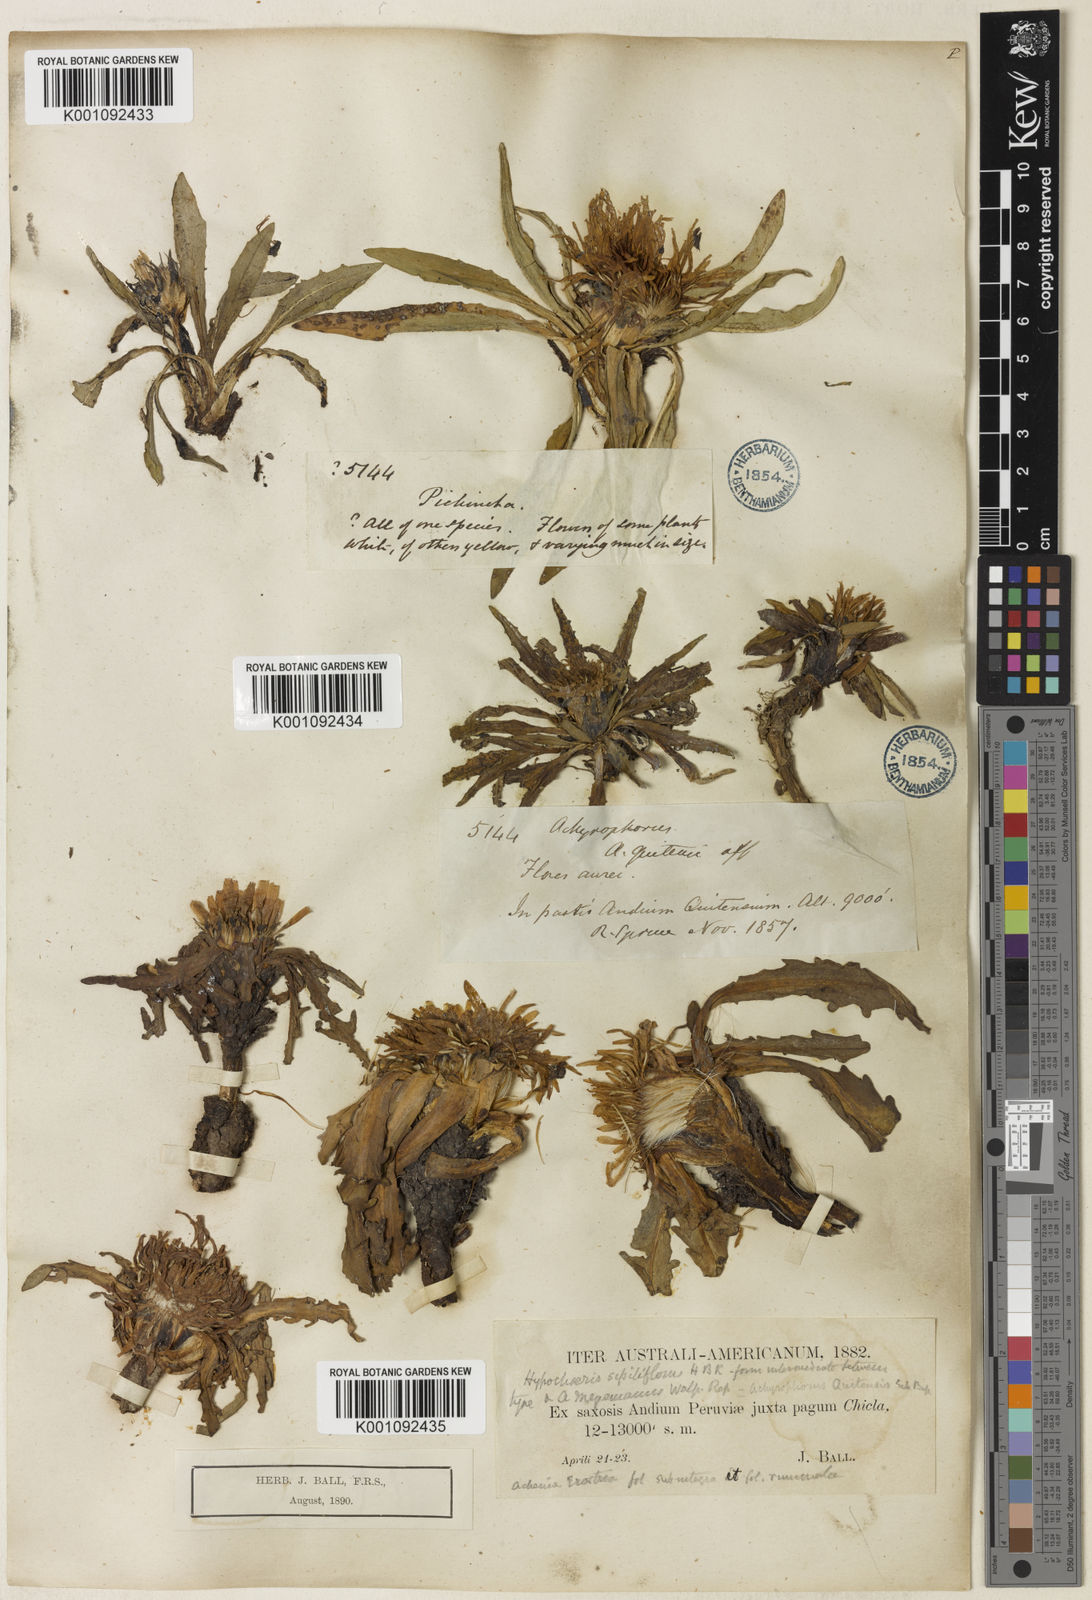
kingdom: Plantae
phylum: Tracheophyta
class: Magnoliopsida
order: Asterales
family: Asteraceae
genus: Hypochaeris
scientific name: Hypochaeris
